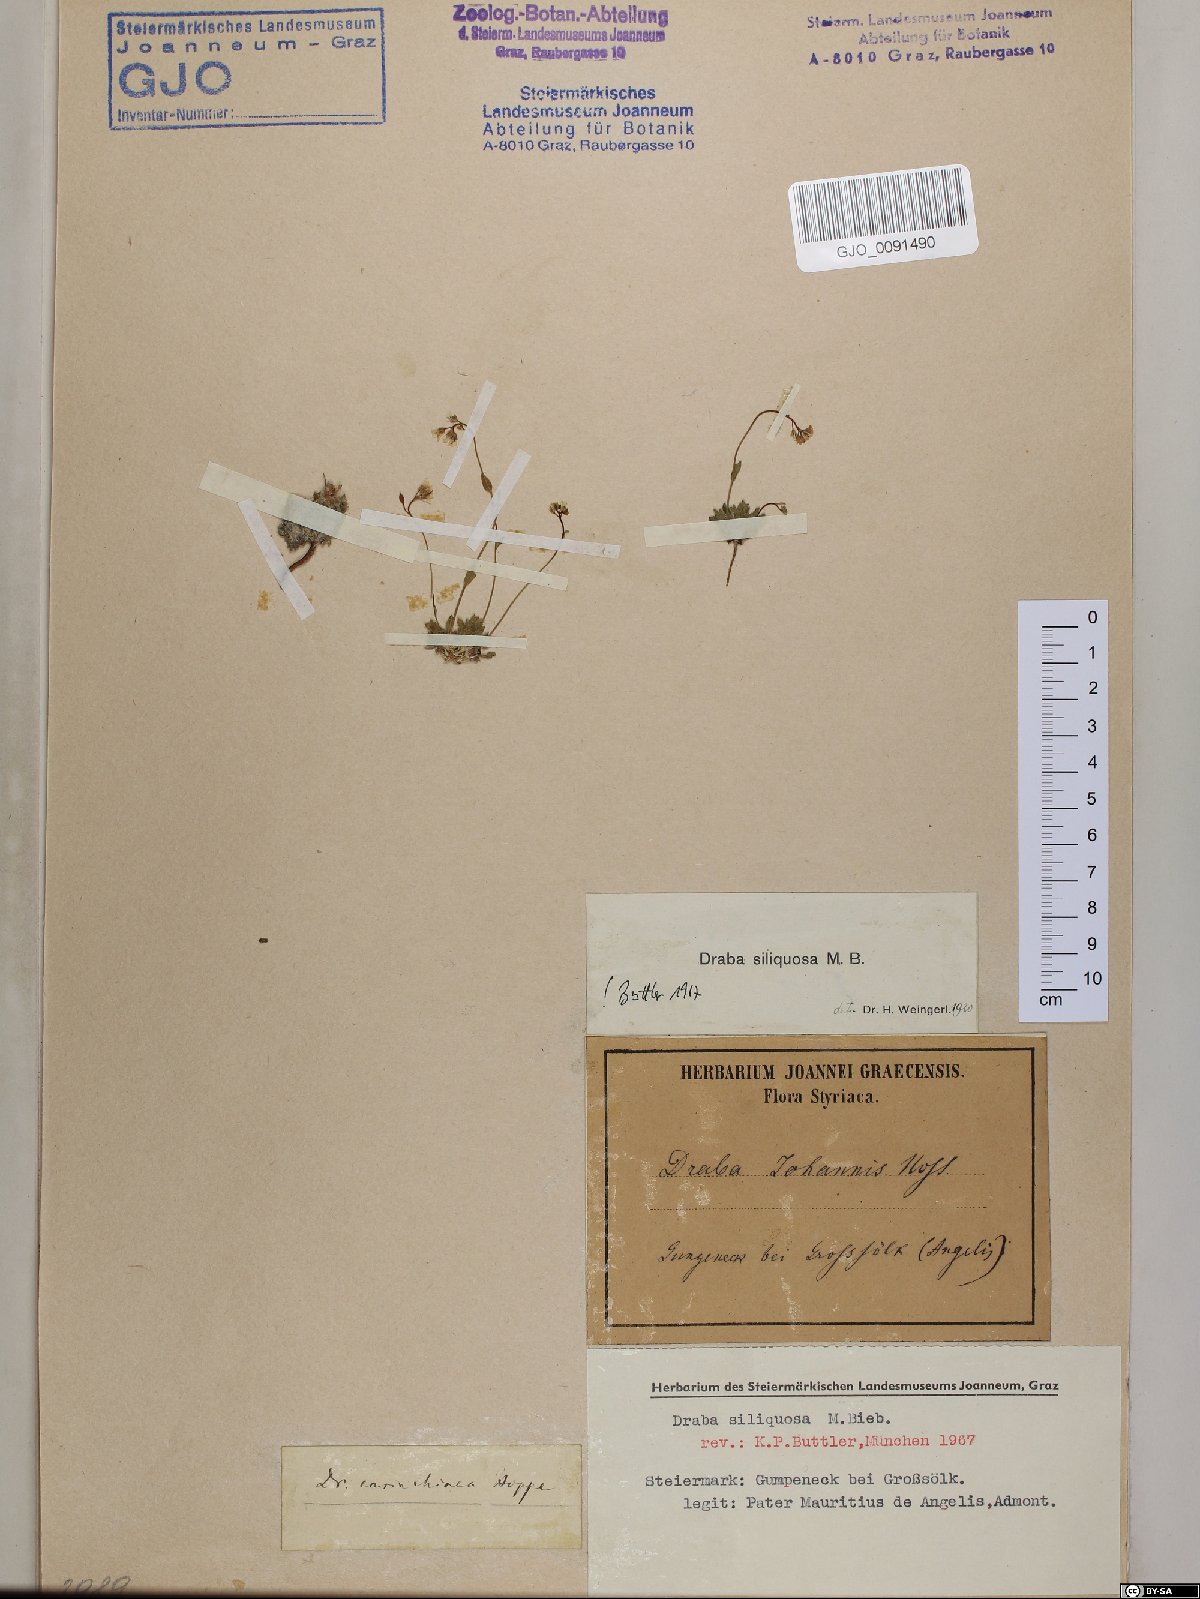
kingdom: Plantae
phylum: Tracheophyta
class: Magnoliopsida
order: Brassicales
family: Brassicaceae
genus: Draba
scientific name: Draba siliquosa
